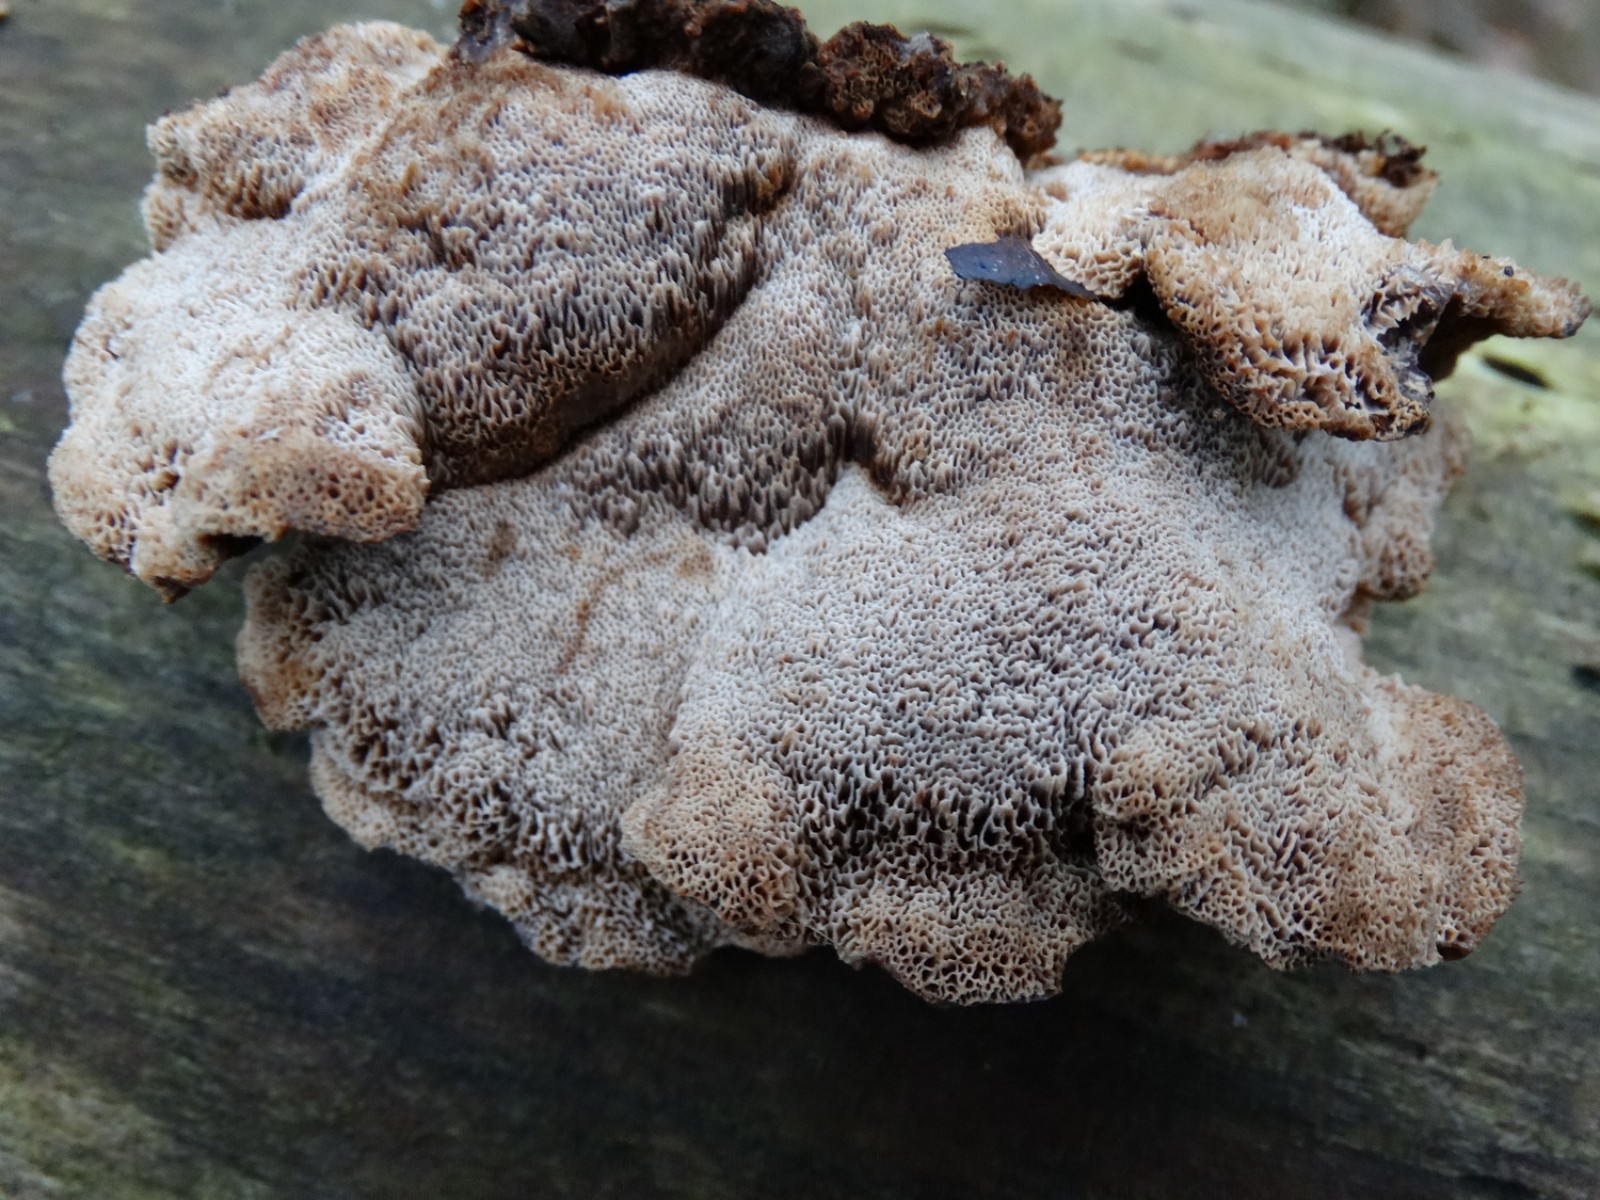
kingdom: Fungi
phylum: Basidiomycota
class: Agaricomycetes
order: Polyporales
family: Ischnodermataceae
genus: Ischnoderma
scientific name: Ischnoderma benzoinum
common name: gran-tjæreporesvamp
